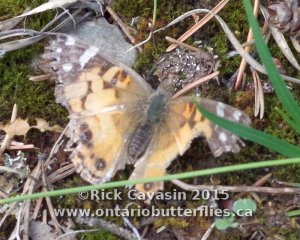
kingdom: Animalia
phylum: Arthropoda
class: Insecta
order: Lepidoptera
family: Nymphalidae
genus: Vanessa
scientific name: Vanessa virginiensis
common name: American Lady
